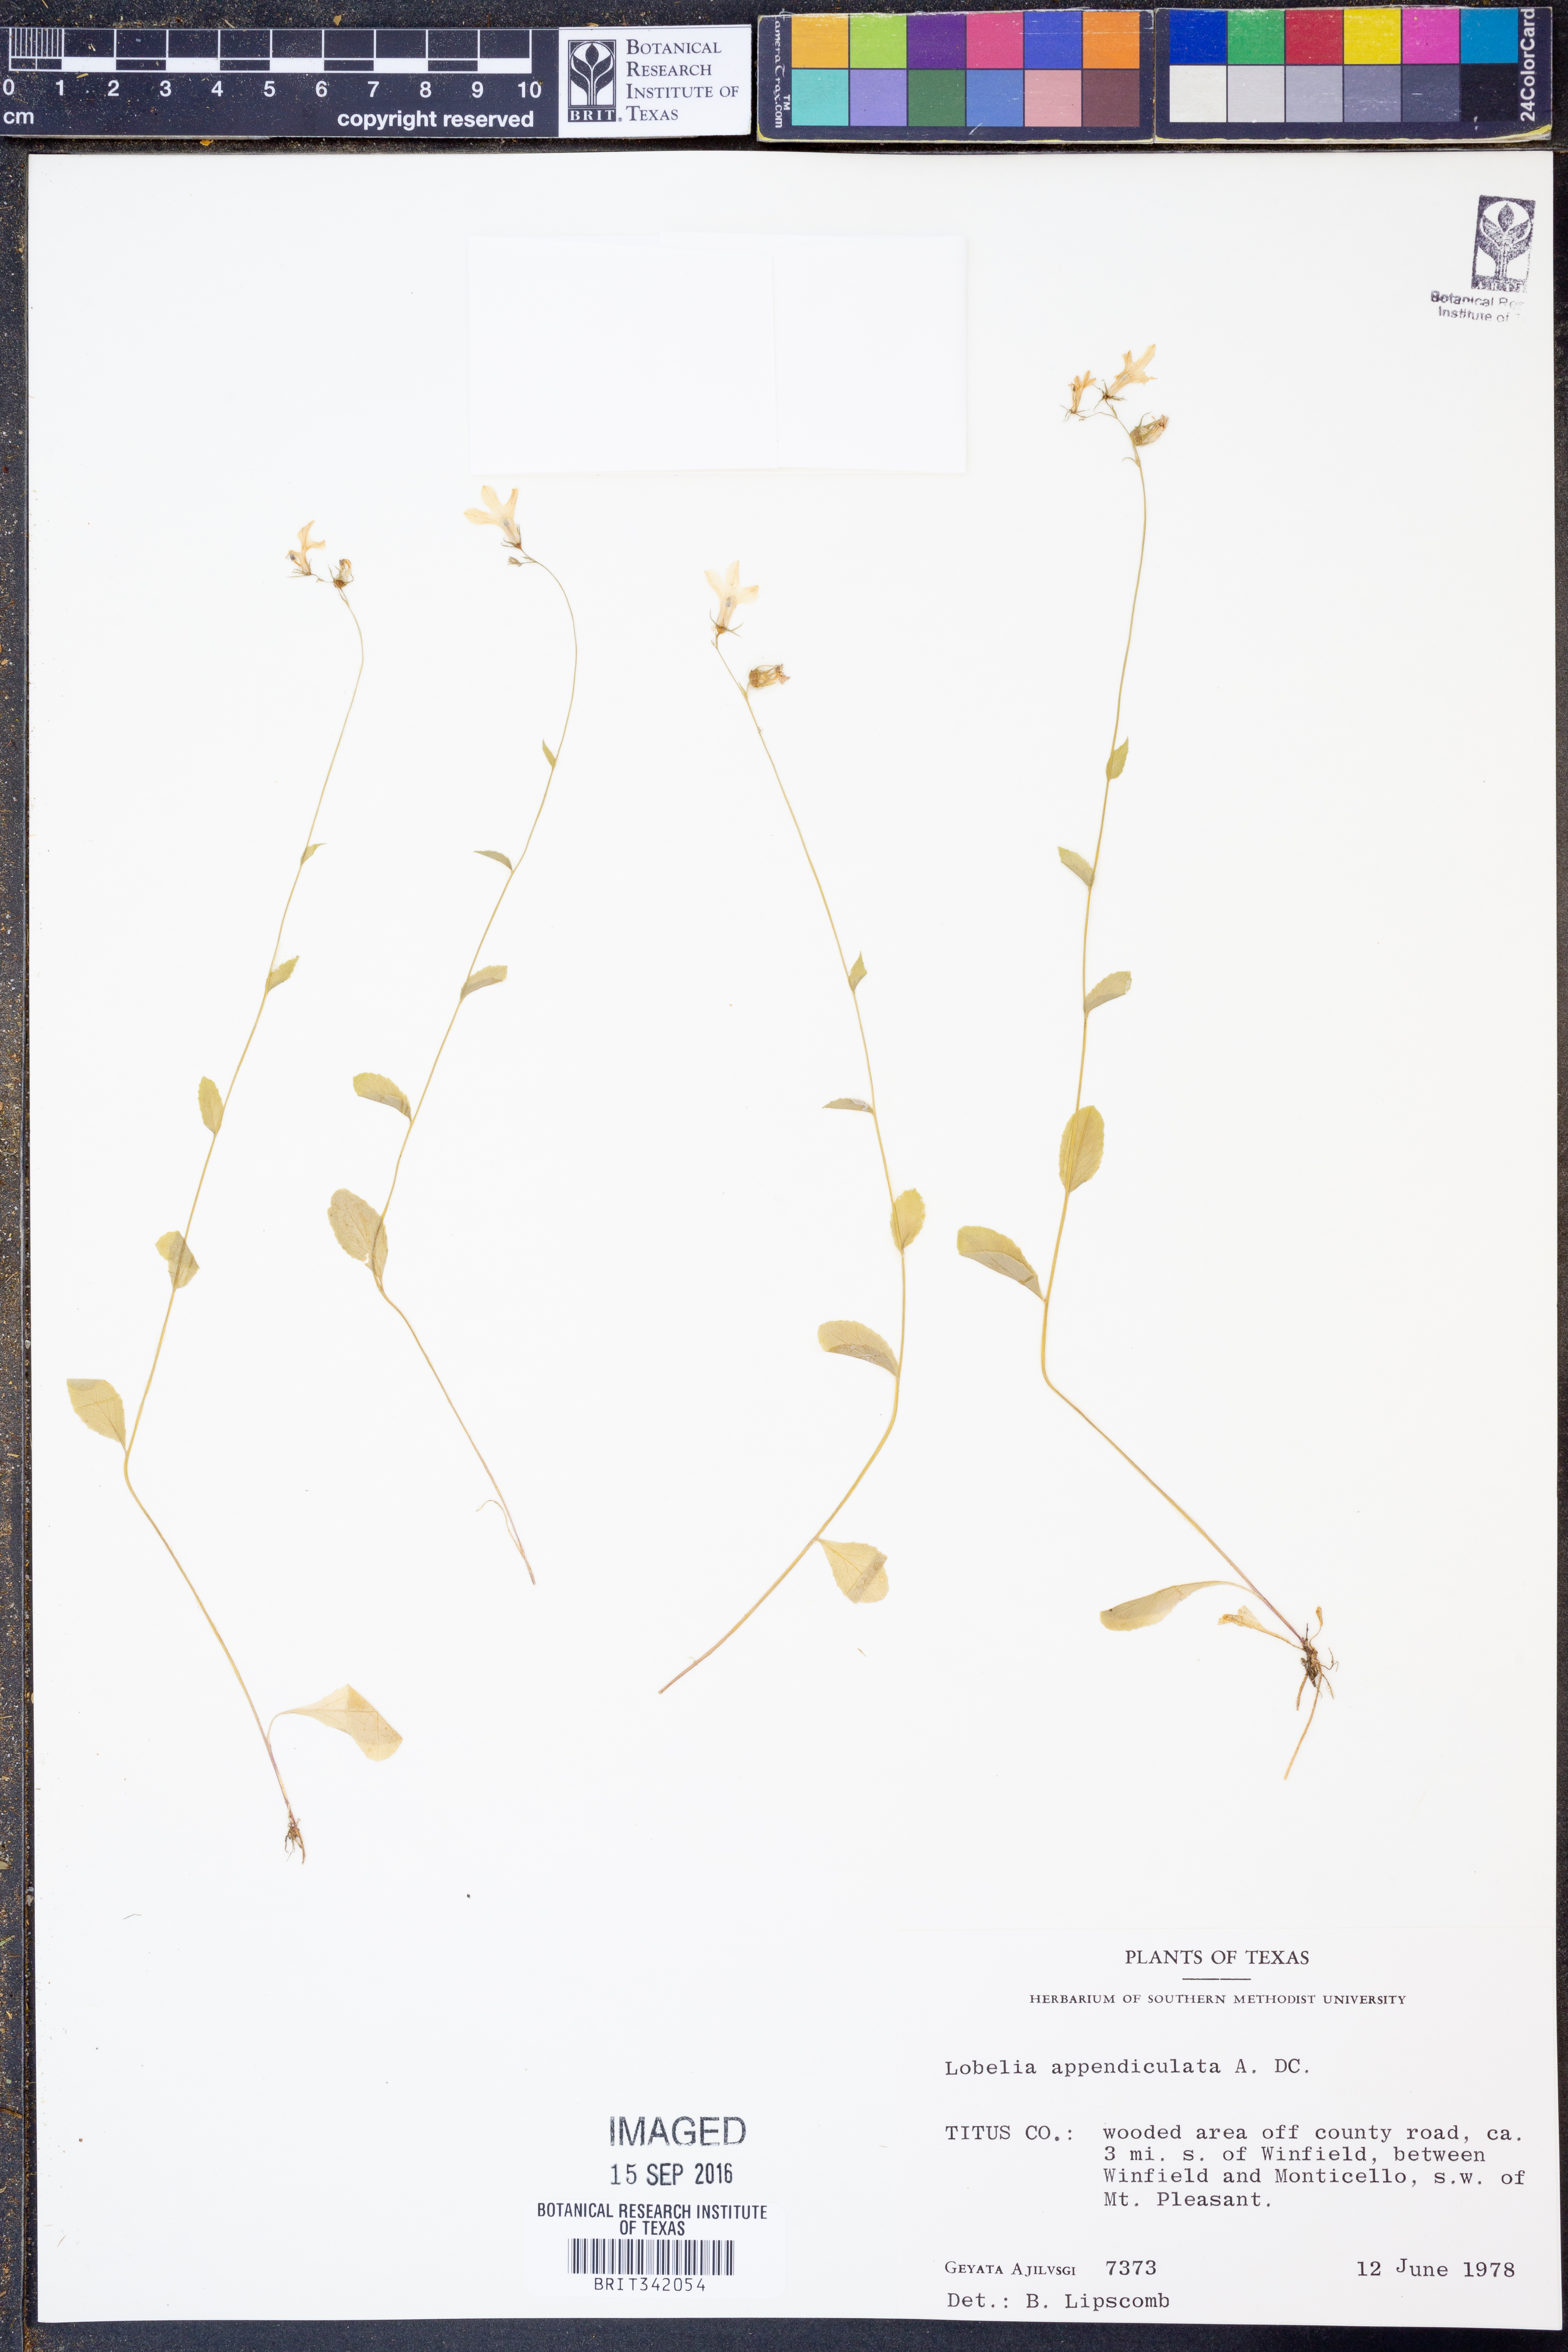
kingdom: Plantae
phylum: Tracheophyta
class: Magnoliopsida
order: Asterales
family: Campanulaceae
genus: Lobelia
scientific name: Lobelia appendiculata
